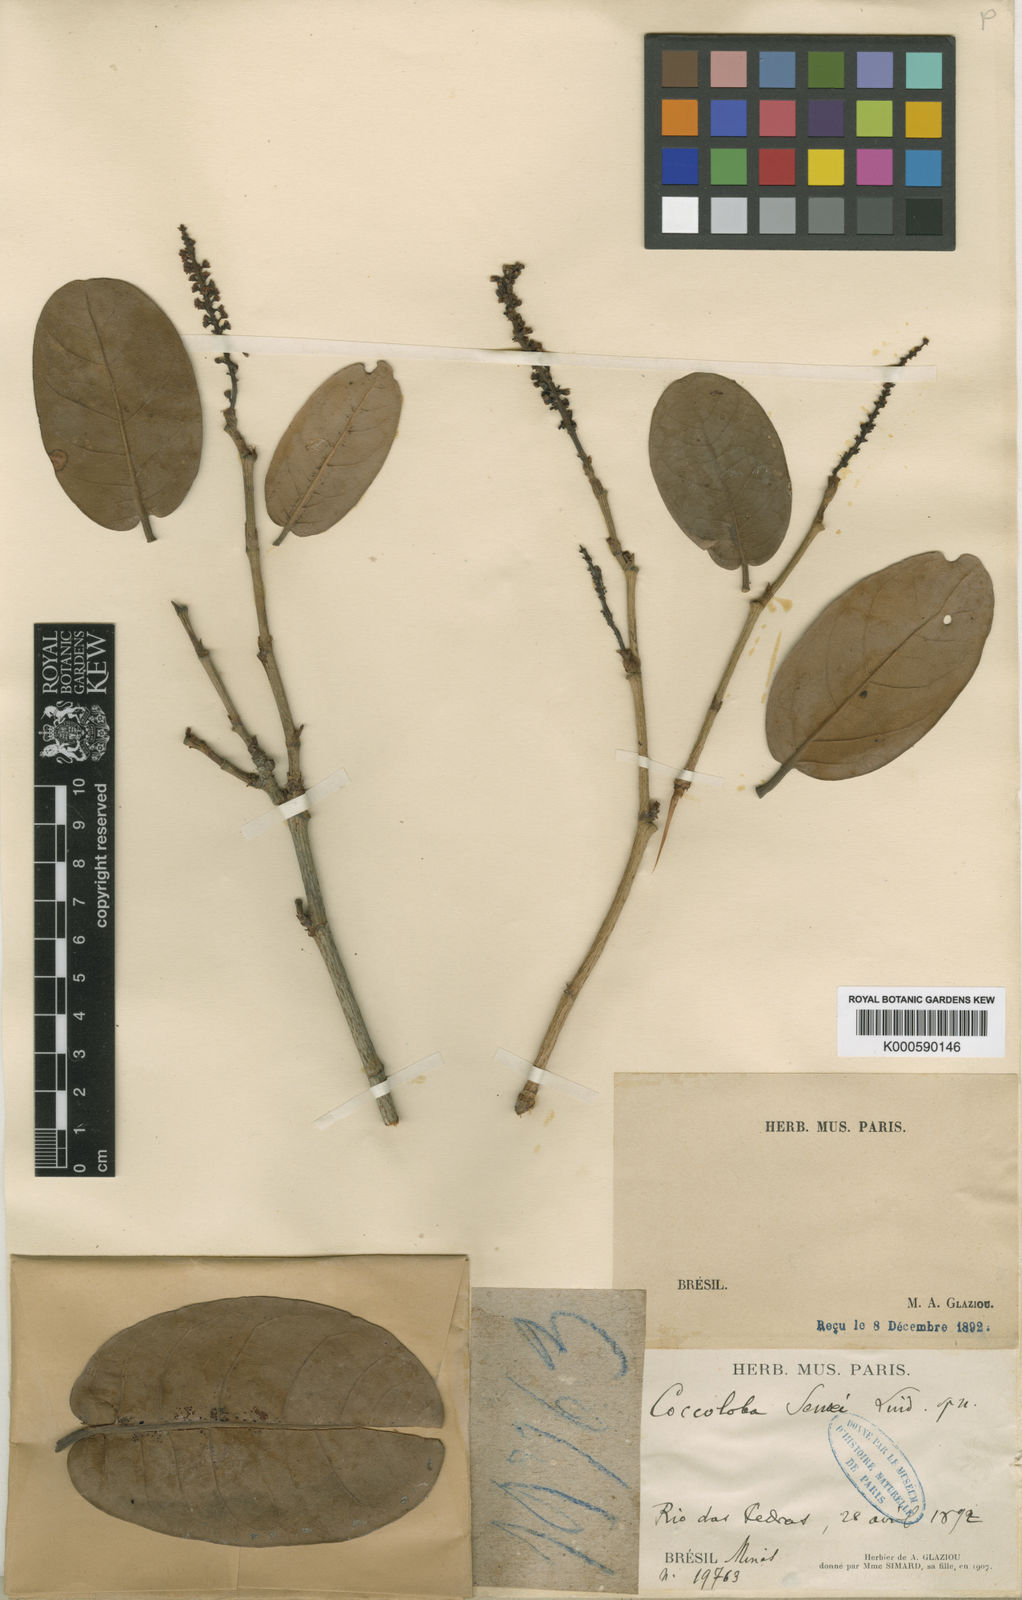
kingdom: Plantae
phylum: Tracheophyta
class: Magnoliopsida
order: Caryophyllales
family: Polygonaceae
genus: Coccoloba
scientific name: Coccoloba brasiliensis
